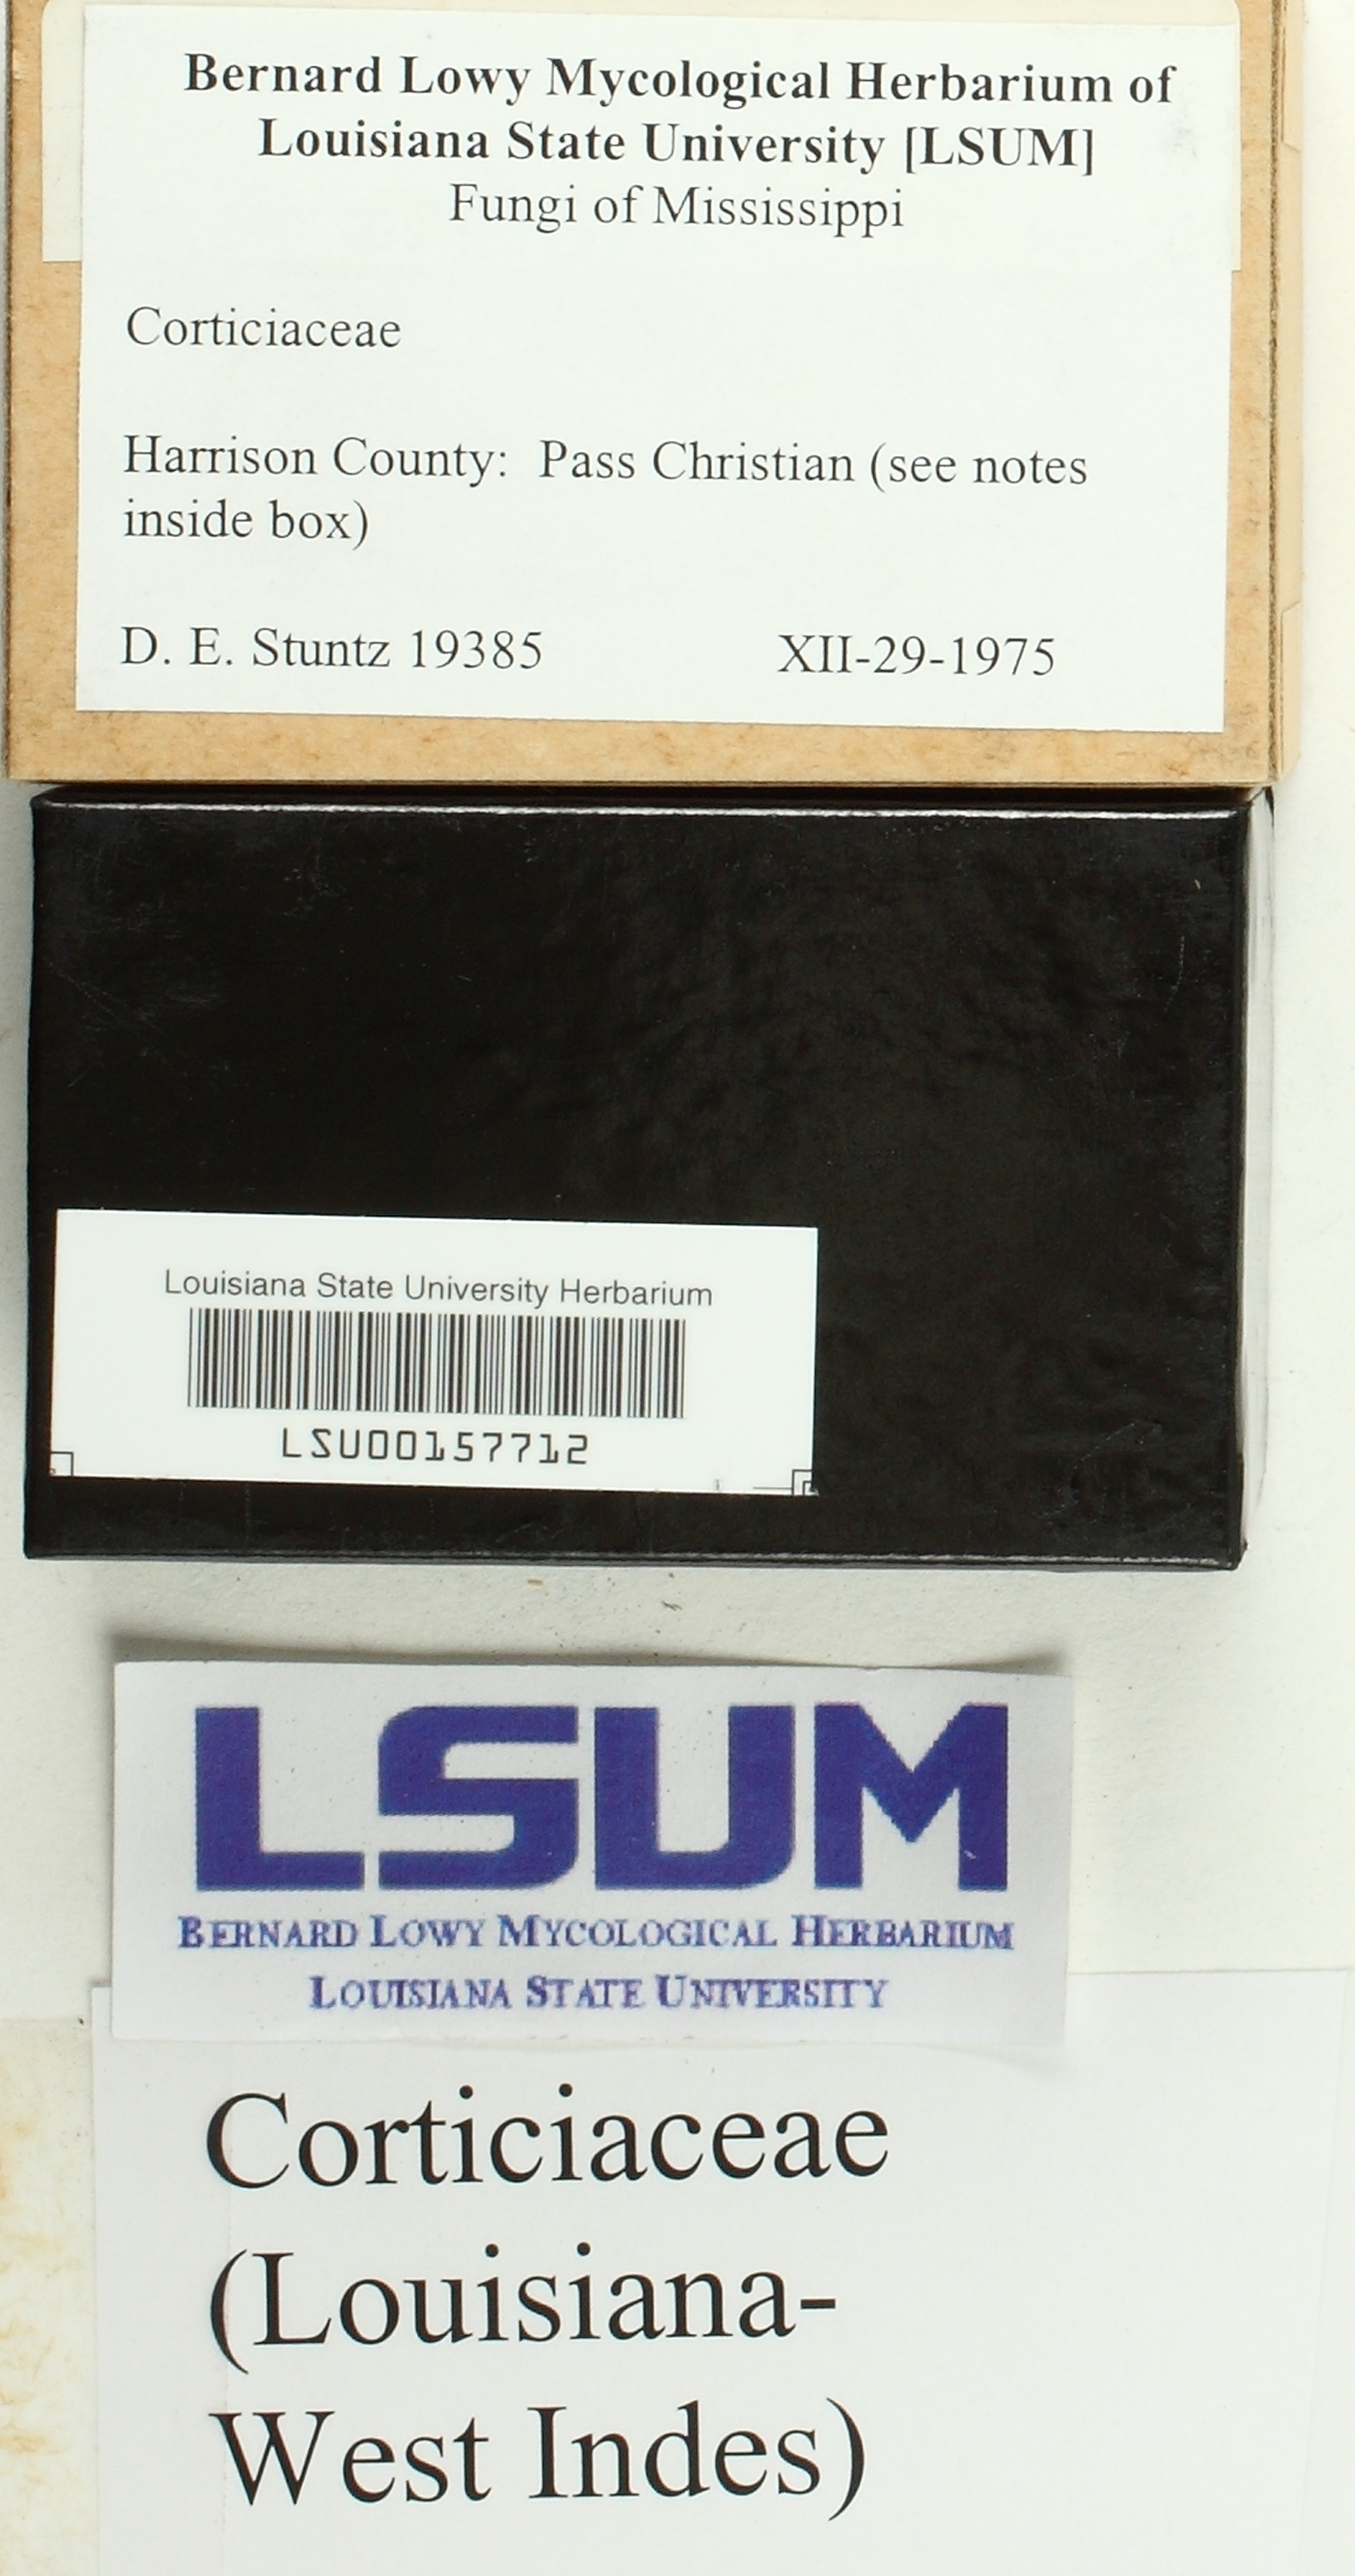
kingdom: Fungi
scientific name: Fungi
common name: Fungi
